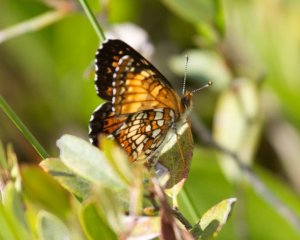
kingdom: Animalia
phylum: Arthropoda
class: Insecta
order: Lepidoptera
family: Nymphalidae
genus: Chlosyne
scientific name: Chlosyne harrisii
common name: Harris's Checkerspot
